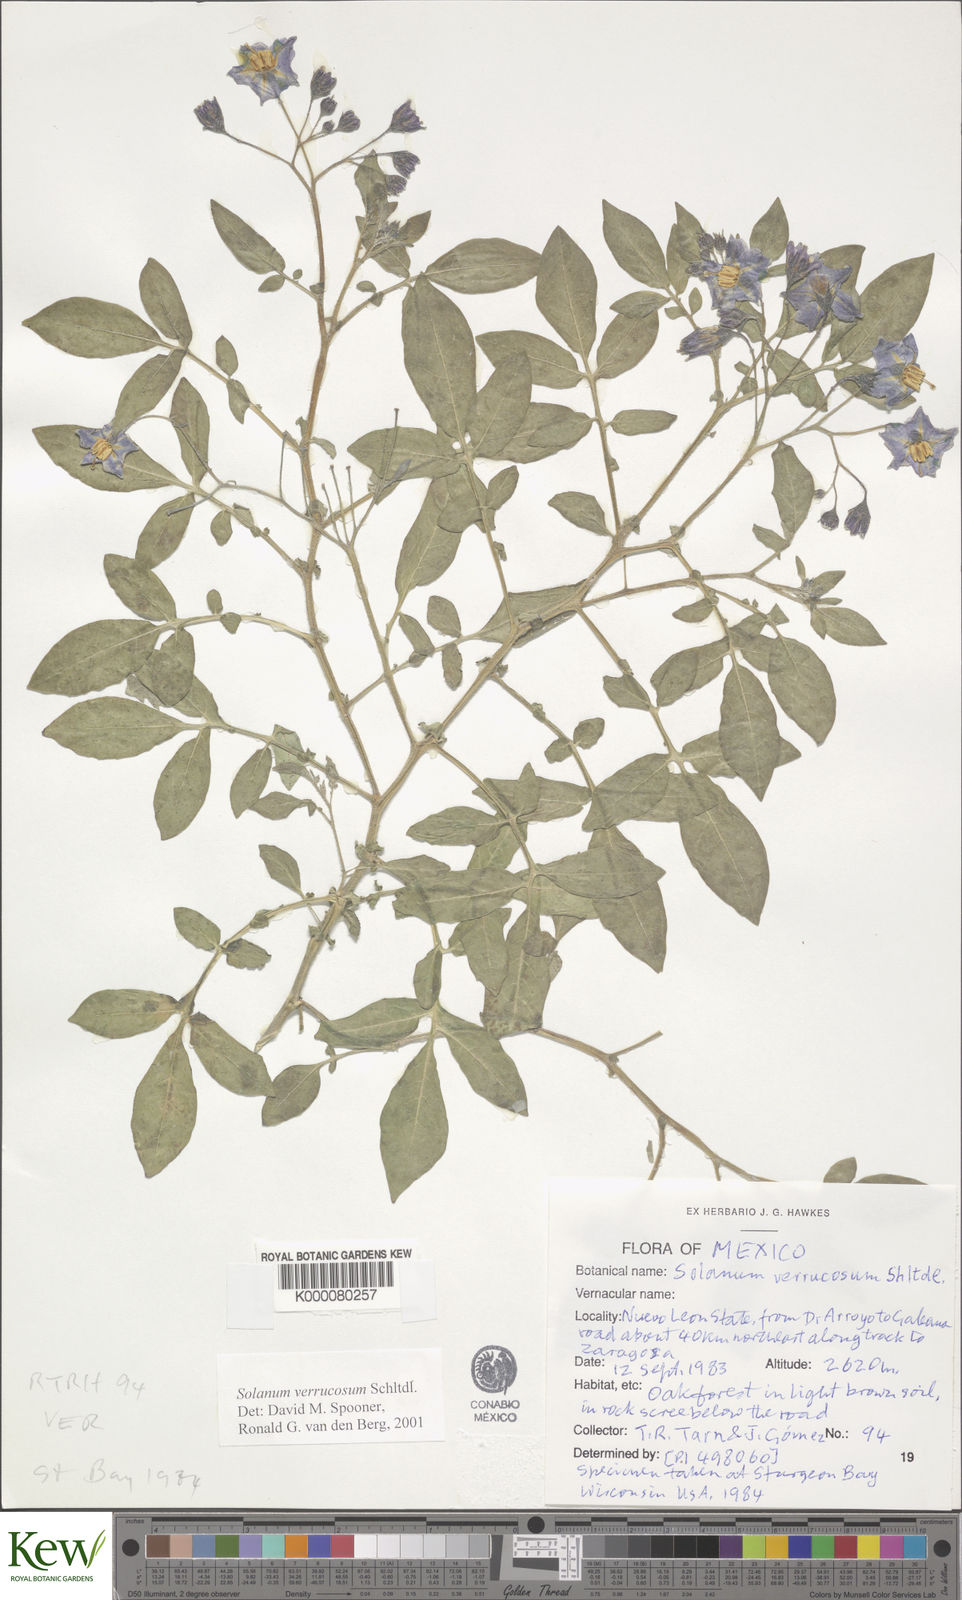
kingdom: Plantae
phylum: Tracheophyta
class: Magnoliopsida
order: Solanales
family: Solanaceae
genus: Solanum
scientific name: Solanum verrucosum
